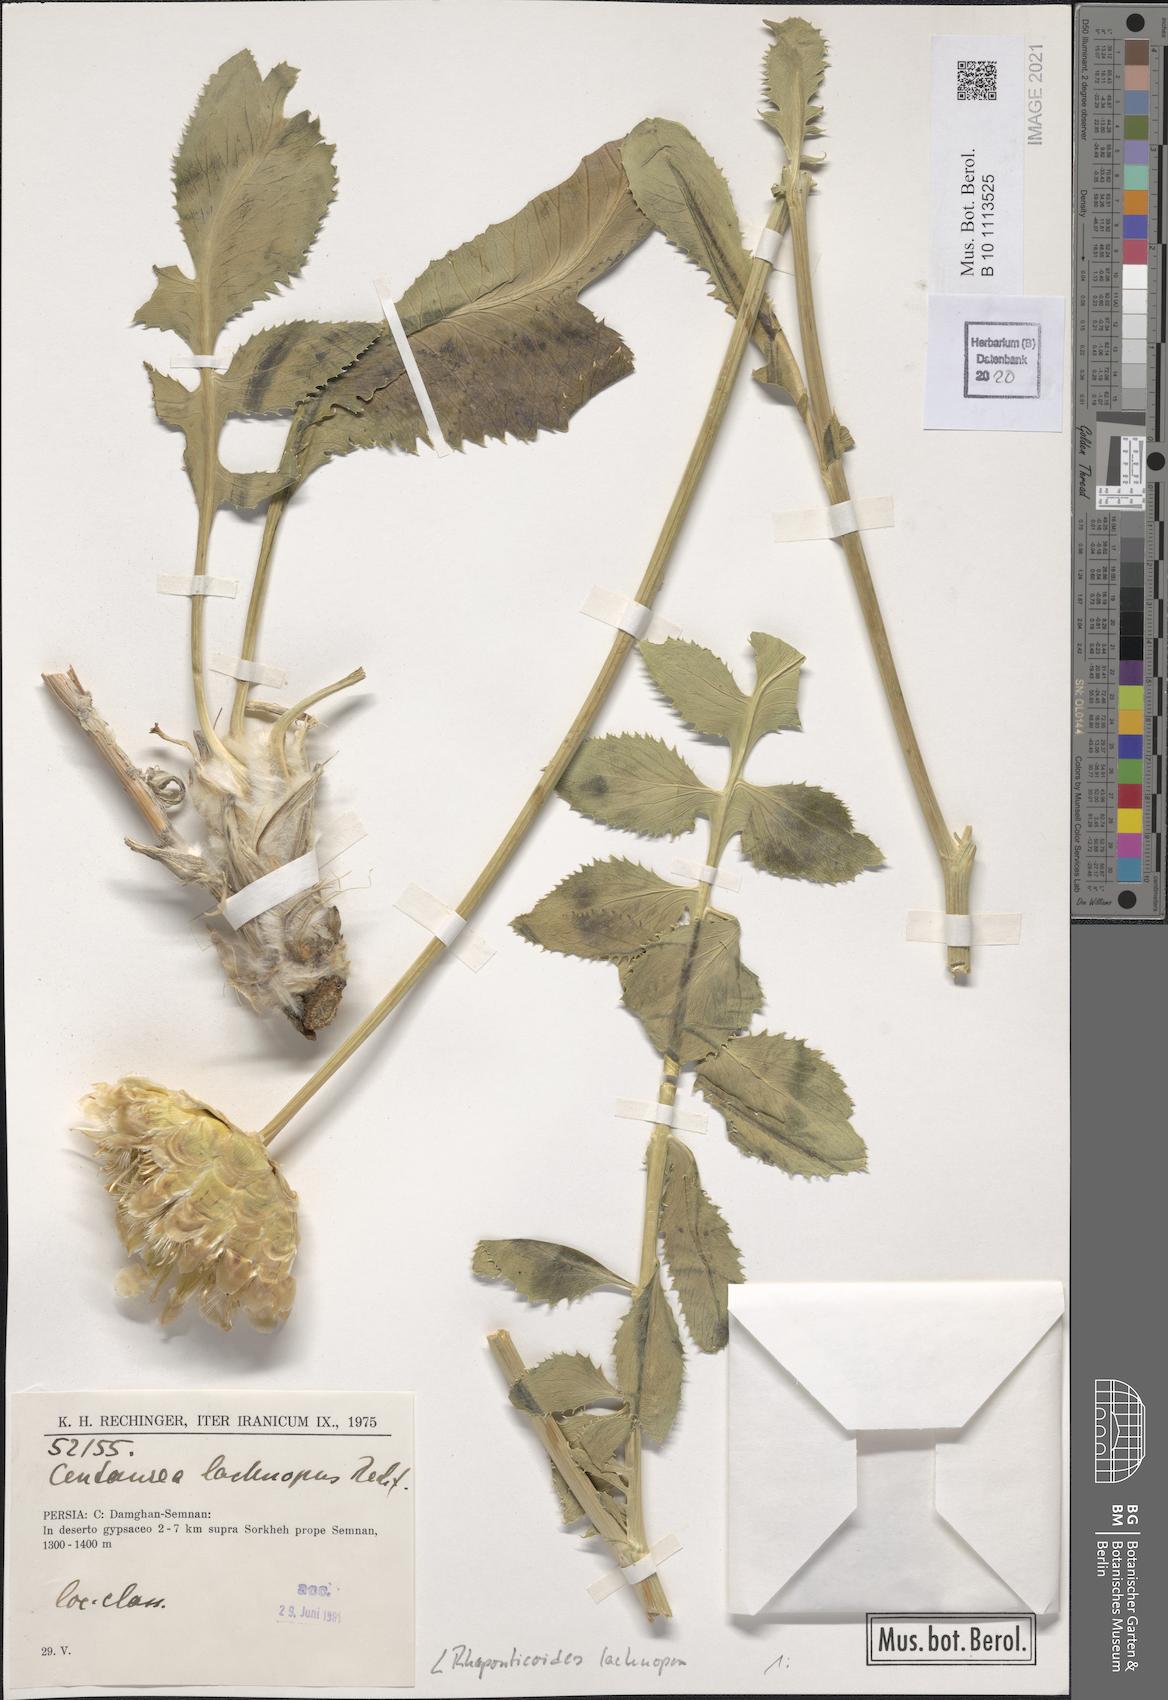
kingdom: Plantae
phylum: Tracheophyta
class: Magnoliopsida
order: Asterales
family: Asteraceae
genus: Rhaponticoides
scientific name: Rhaponticoides lachnopus
